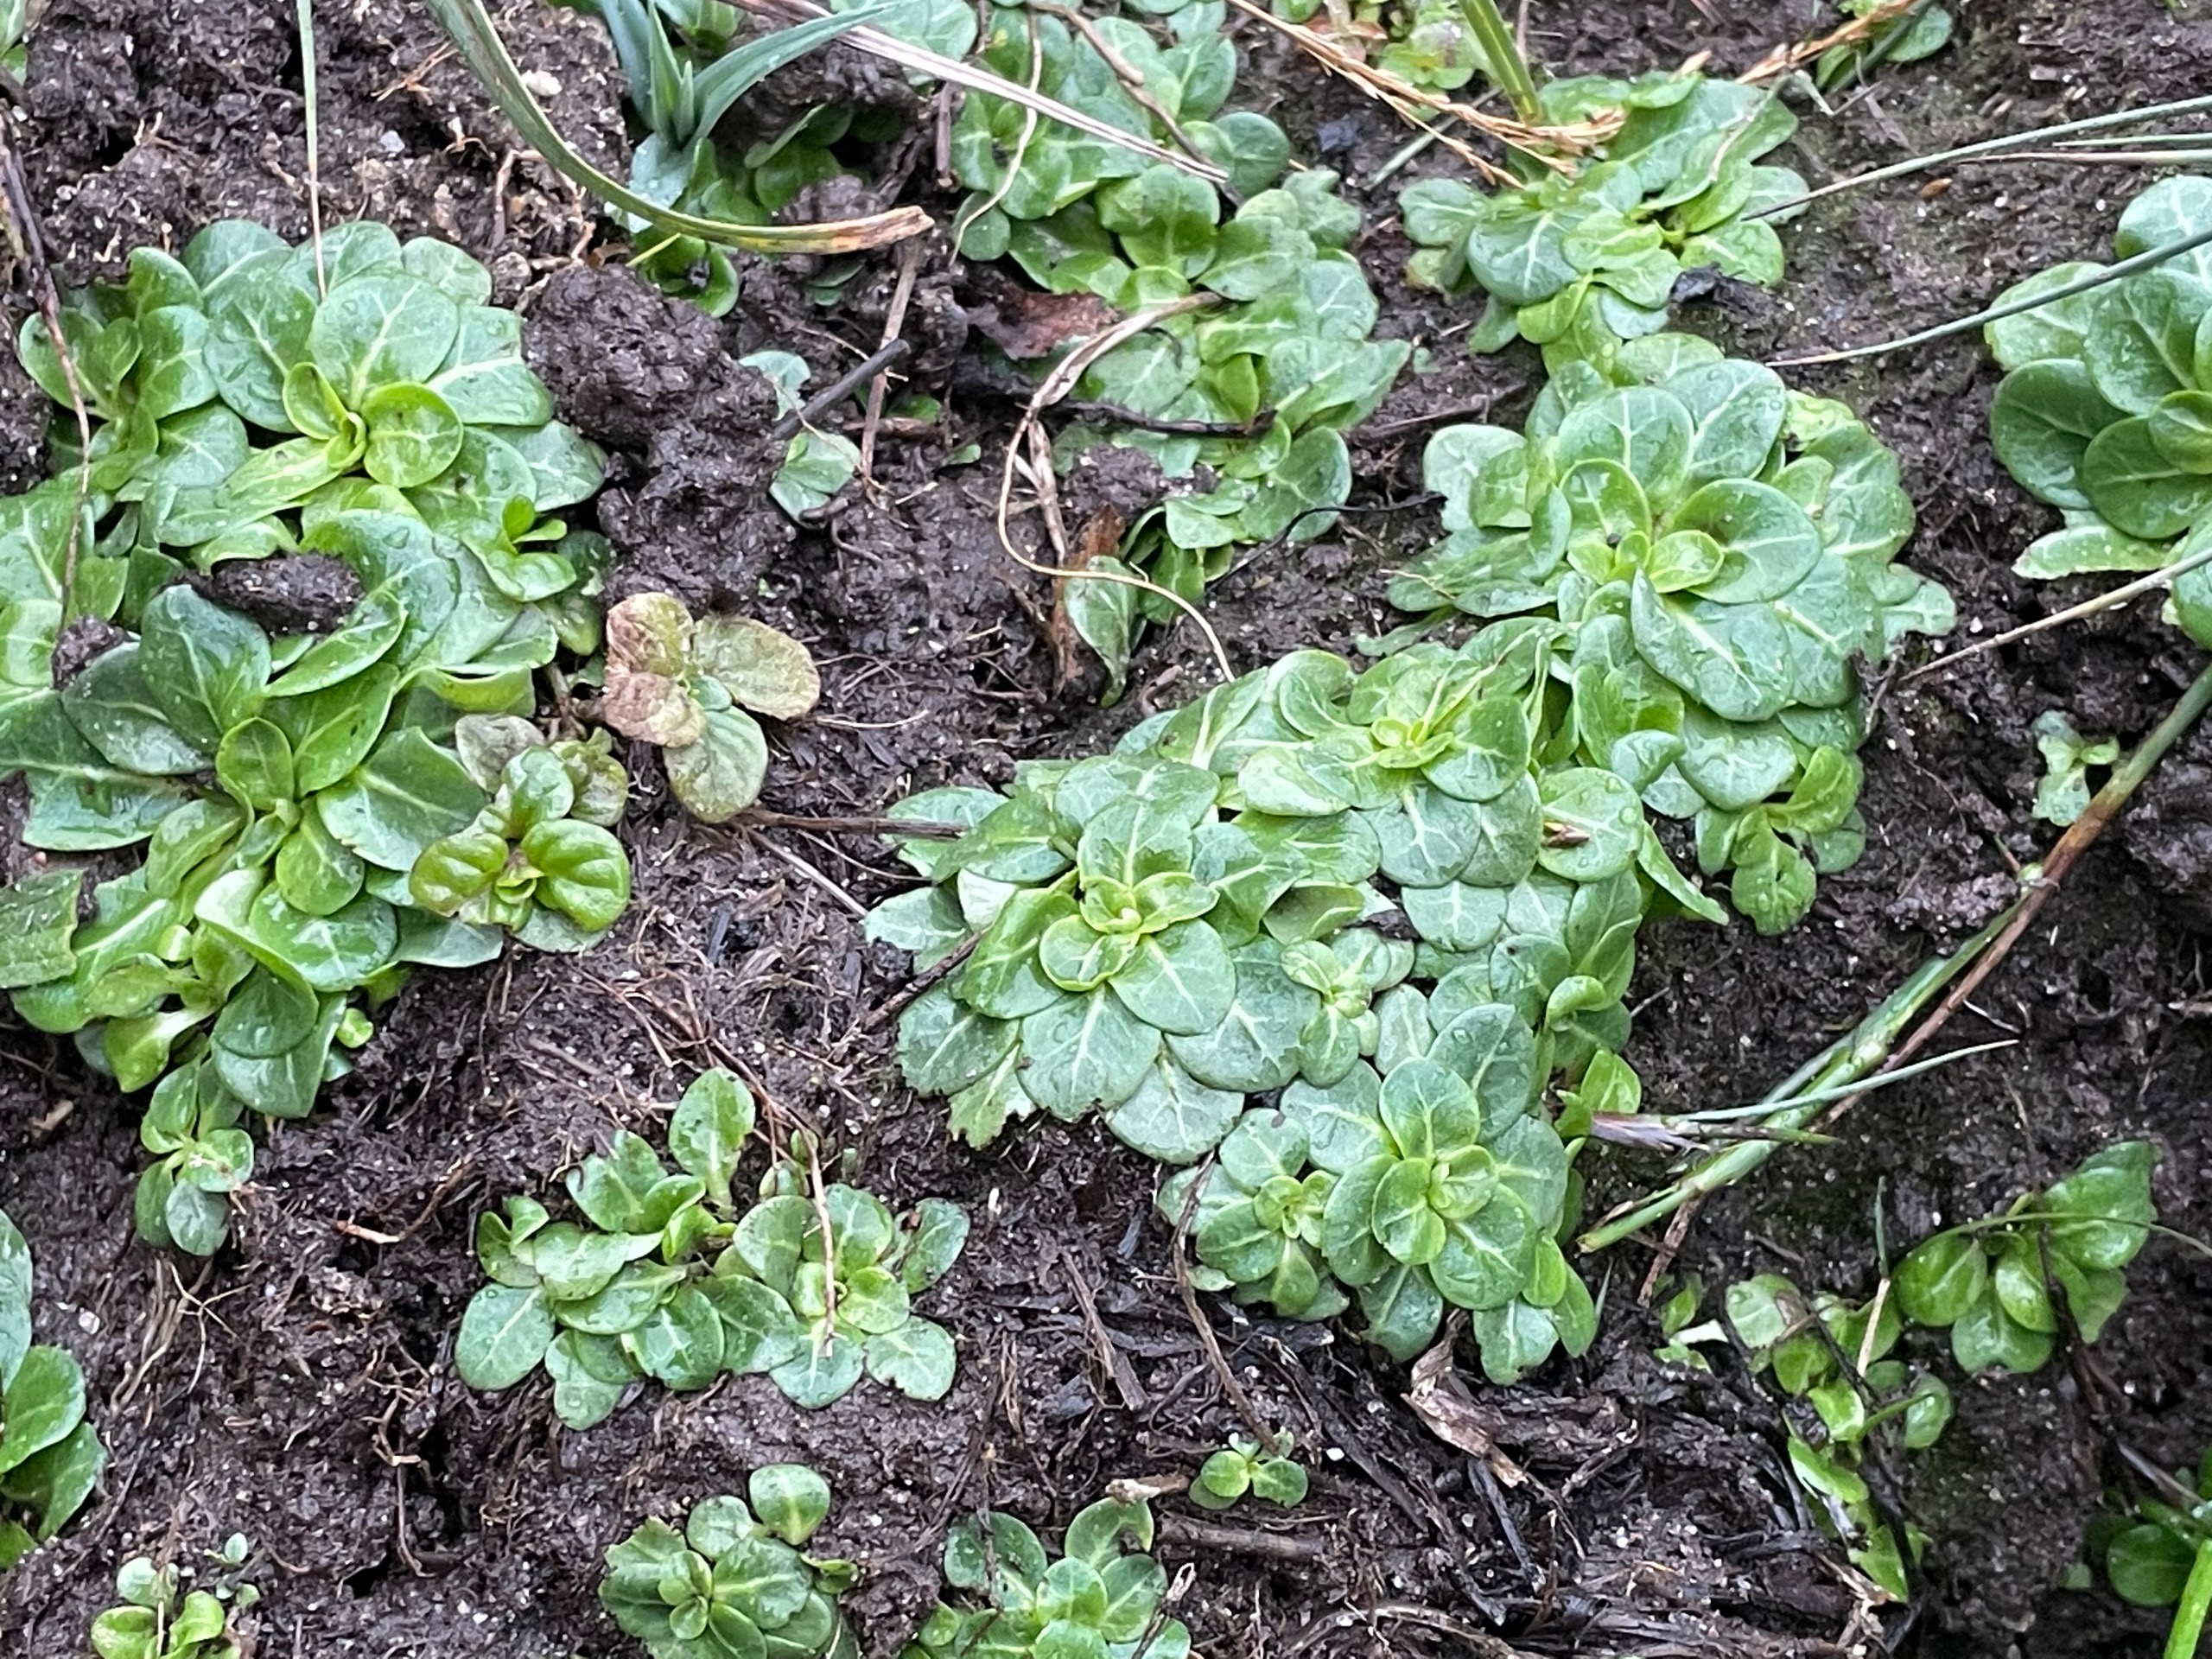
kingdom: Plantae
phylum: Tracheophyta
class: Magnoliopsida
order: Ericales
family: Primulaceae
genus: Samolus
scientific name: Samolus valerandi
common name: Samel
